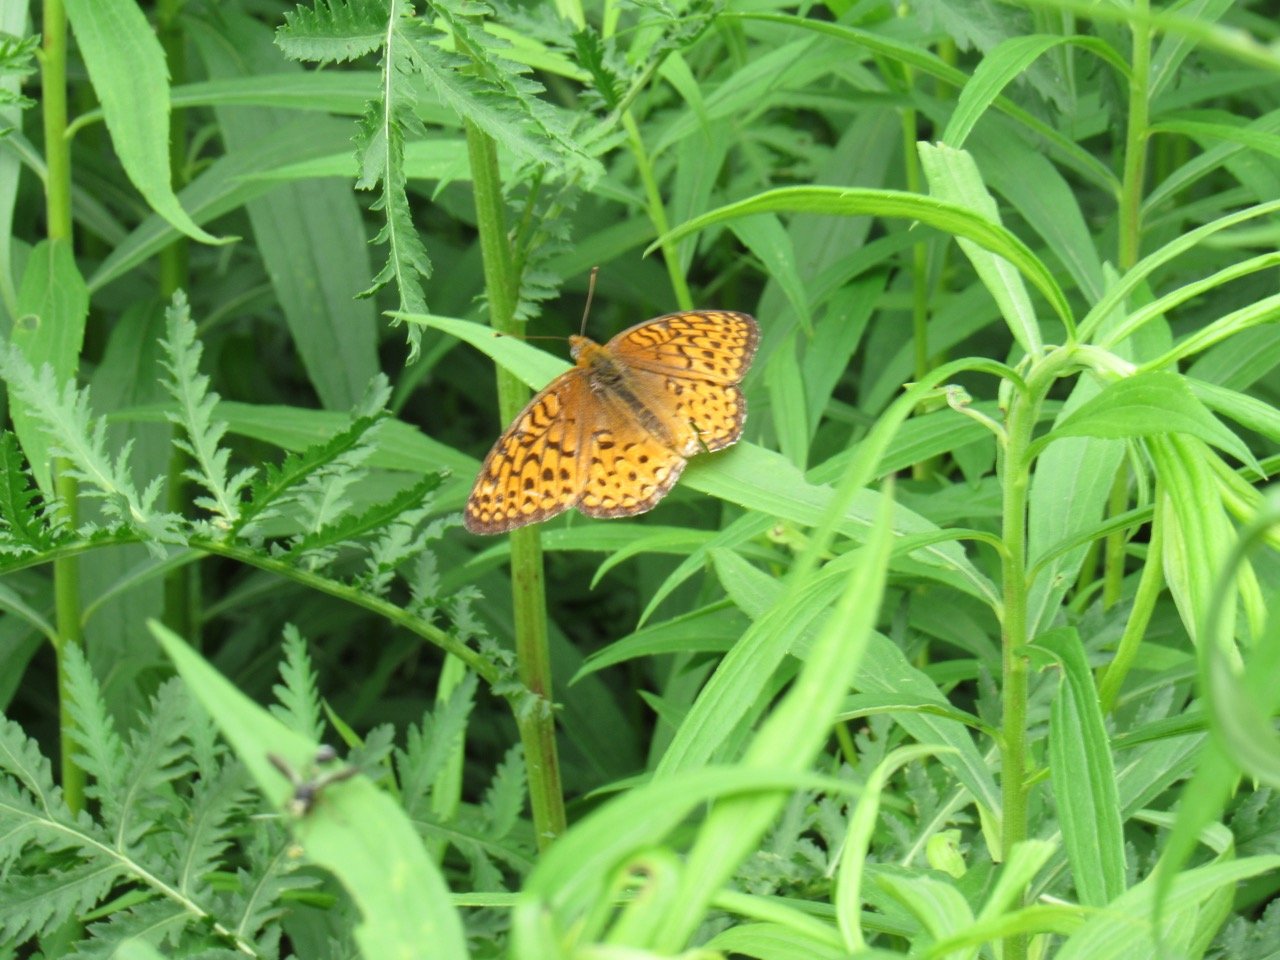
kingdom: Animalia
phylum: Arthropoda
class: Insecta
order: Lepidoptera
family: Nymphalidae
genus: Speyeria
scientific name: Speyeria atlantis
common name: Atlantis Fritillary
